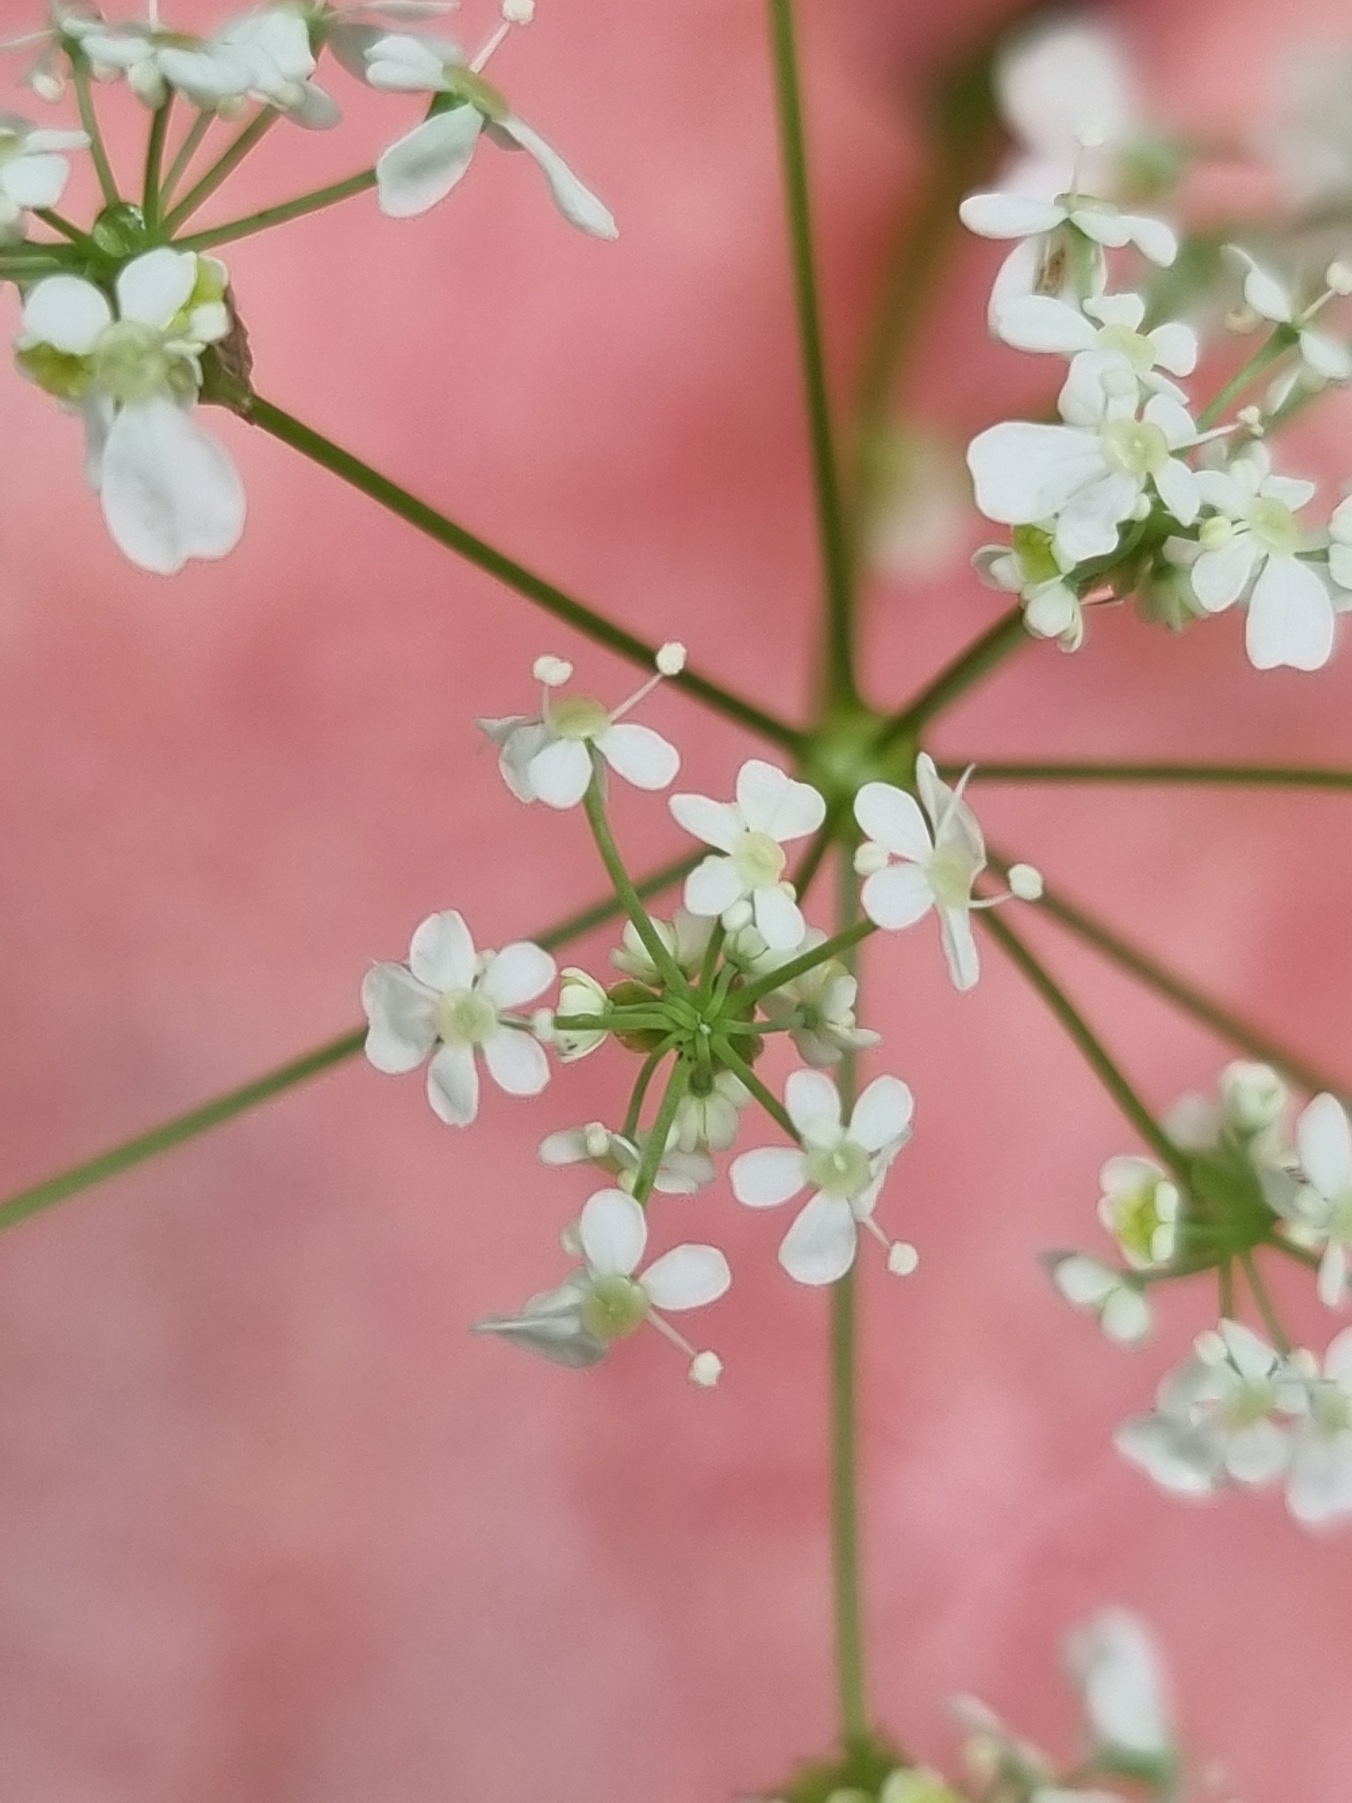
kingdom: Plantae
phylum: Tracheophyta
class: Magnoliopsida
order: Apiales
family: Apiaceae
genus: Anthriscus
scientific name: Anthriscus sylvestris
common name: Vild kørvel
